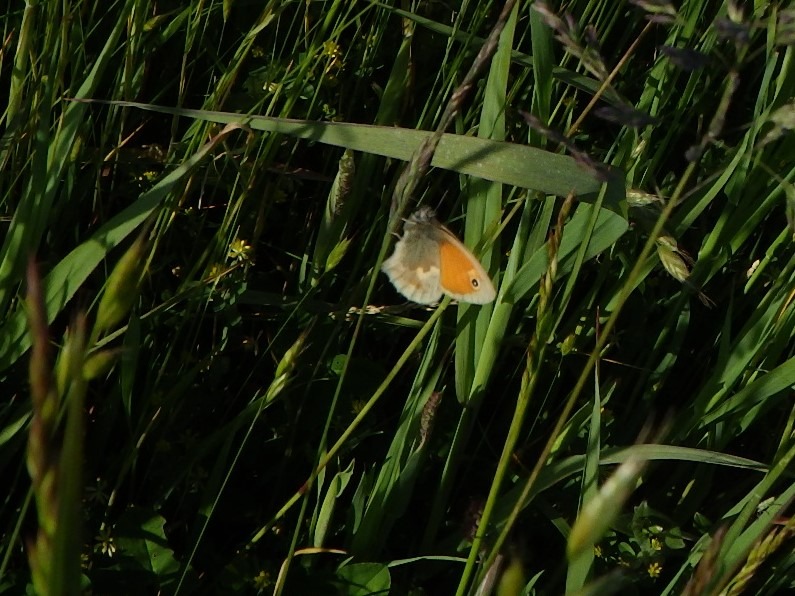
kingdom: Animalia
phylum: Arthropoda
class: Insecta
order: Lepidoptera
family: Nymphalidae
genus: Coenonympha
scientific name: Coenonympha pamphilus
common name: Okkergul randøje
